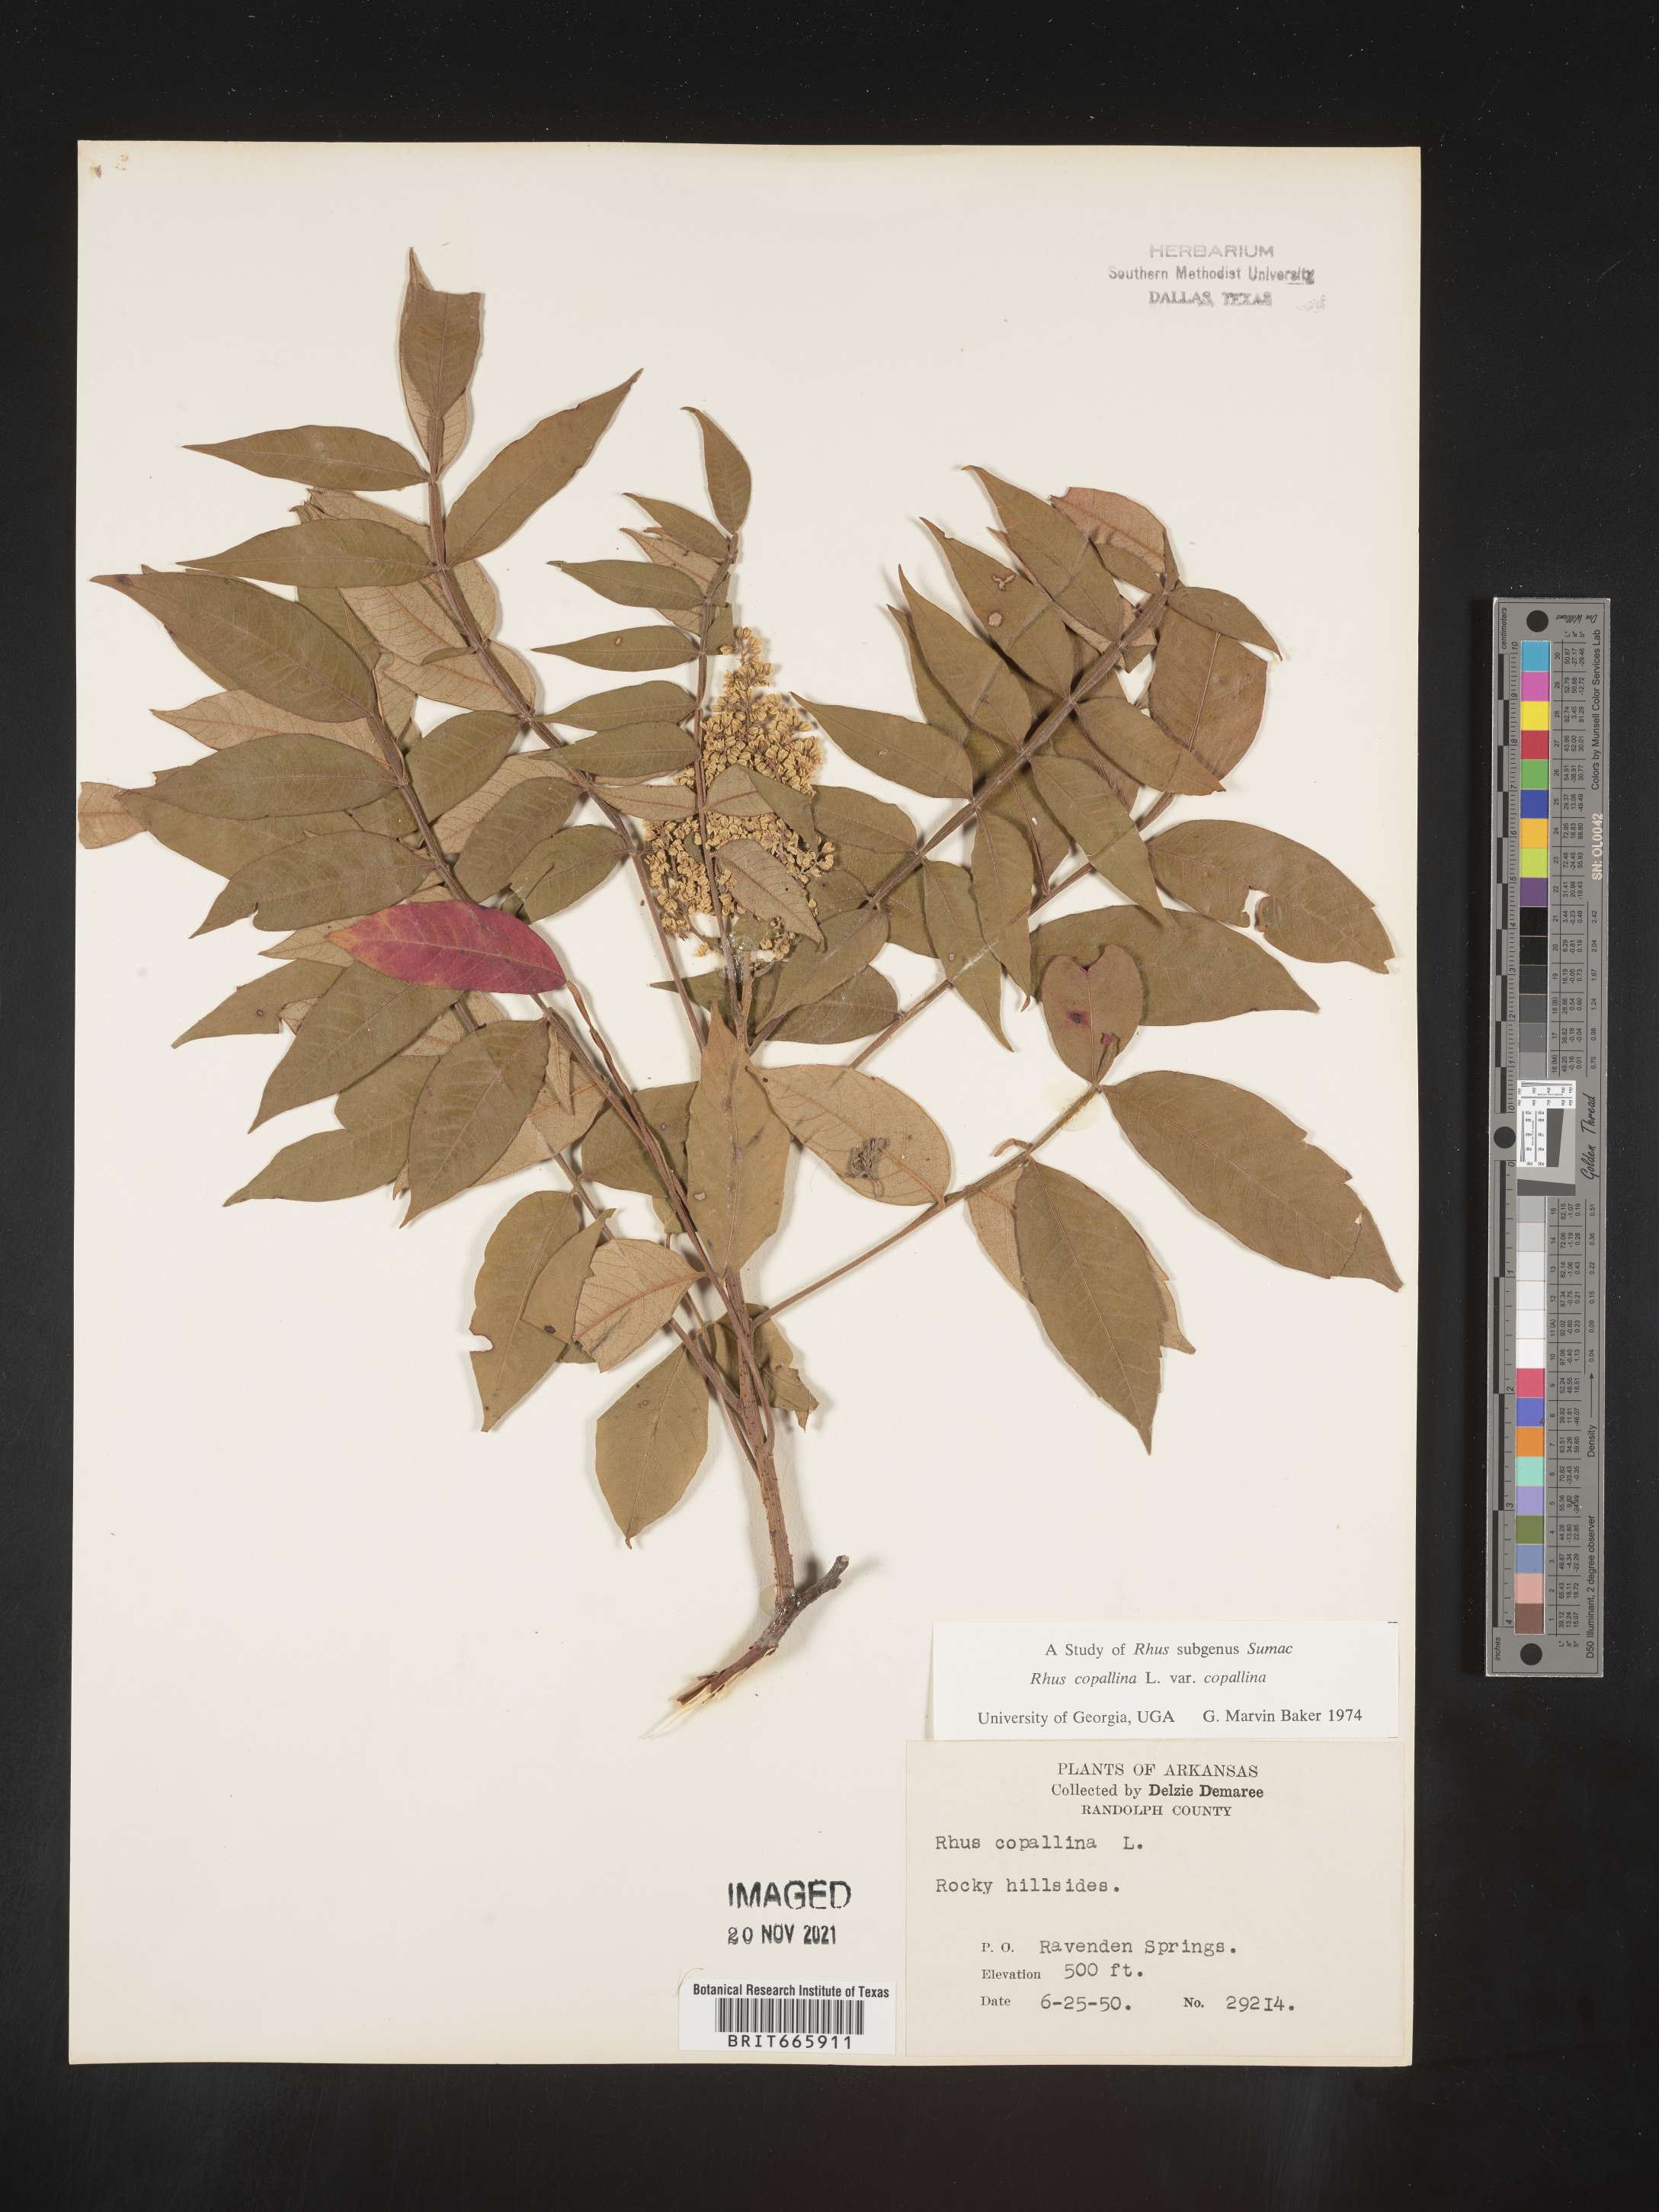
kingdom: Plantae
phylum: Tracheophyta
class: Magnoliopsida
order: Sapindales
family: Anacardiaceae
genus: Rhus
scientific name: Rhus copallina
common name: Shining sumac
